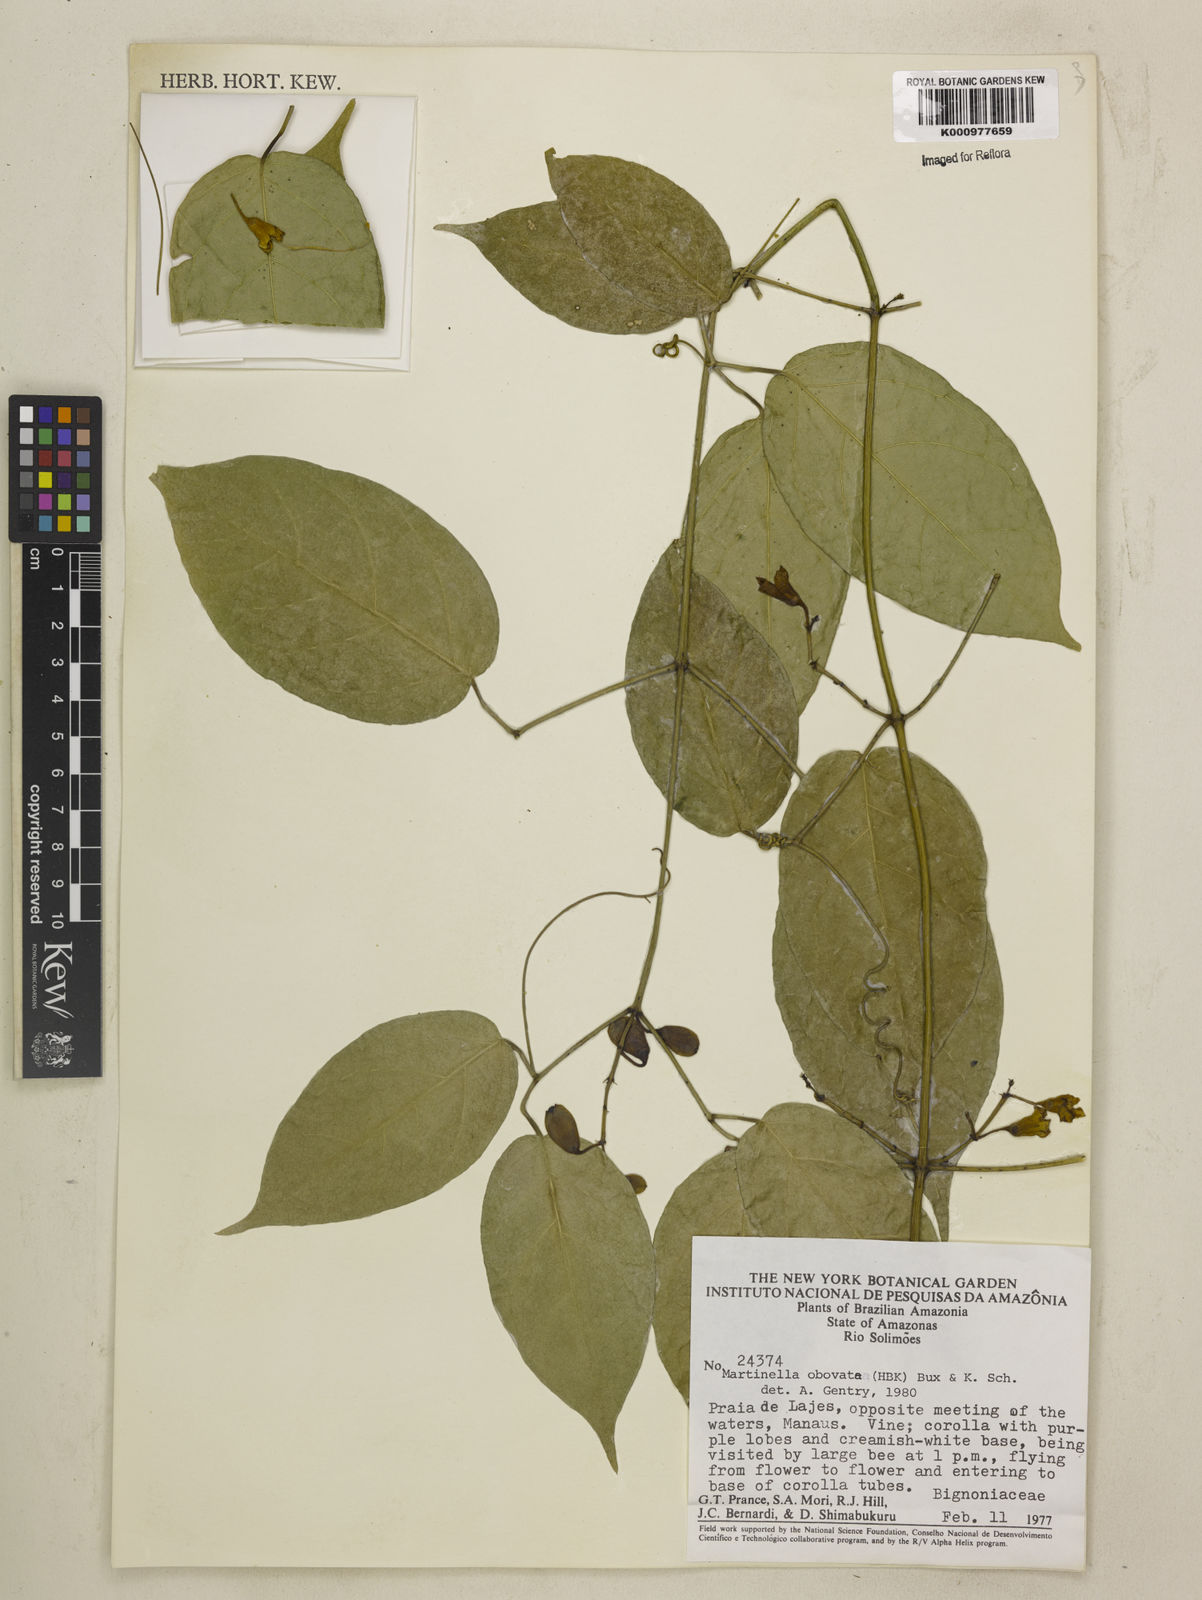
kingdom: Animalia
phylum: Arthropoda
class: Insecta
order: Coleoptera
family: Chrysomelidae
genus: Martinella
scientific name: Martinella obovata
